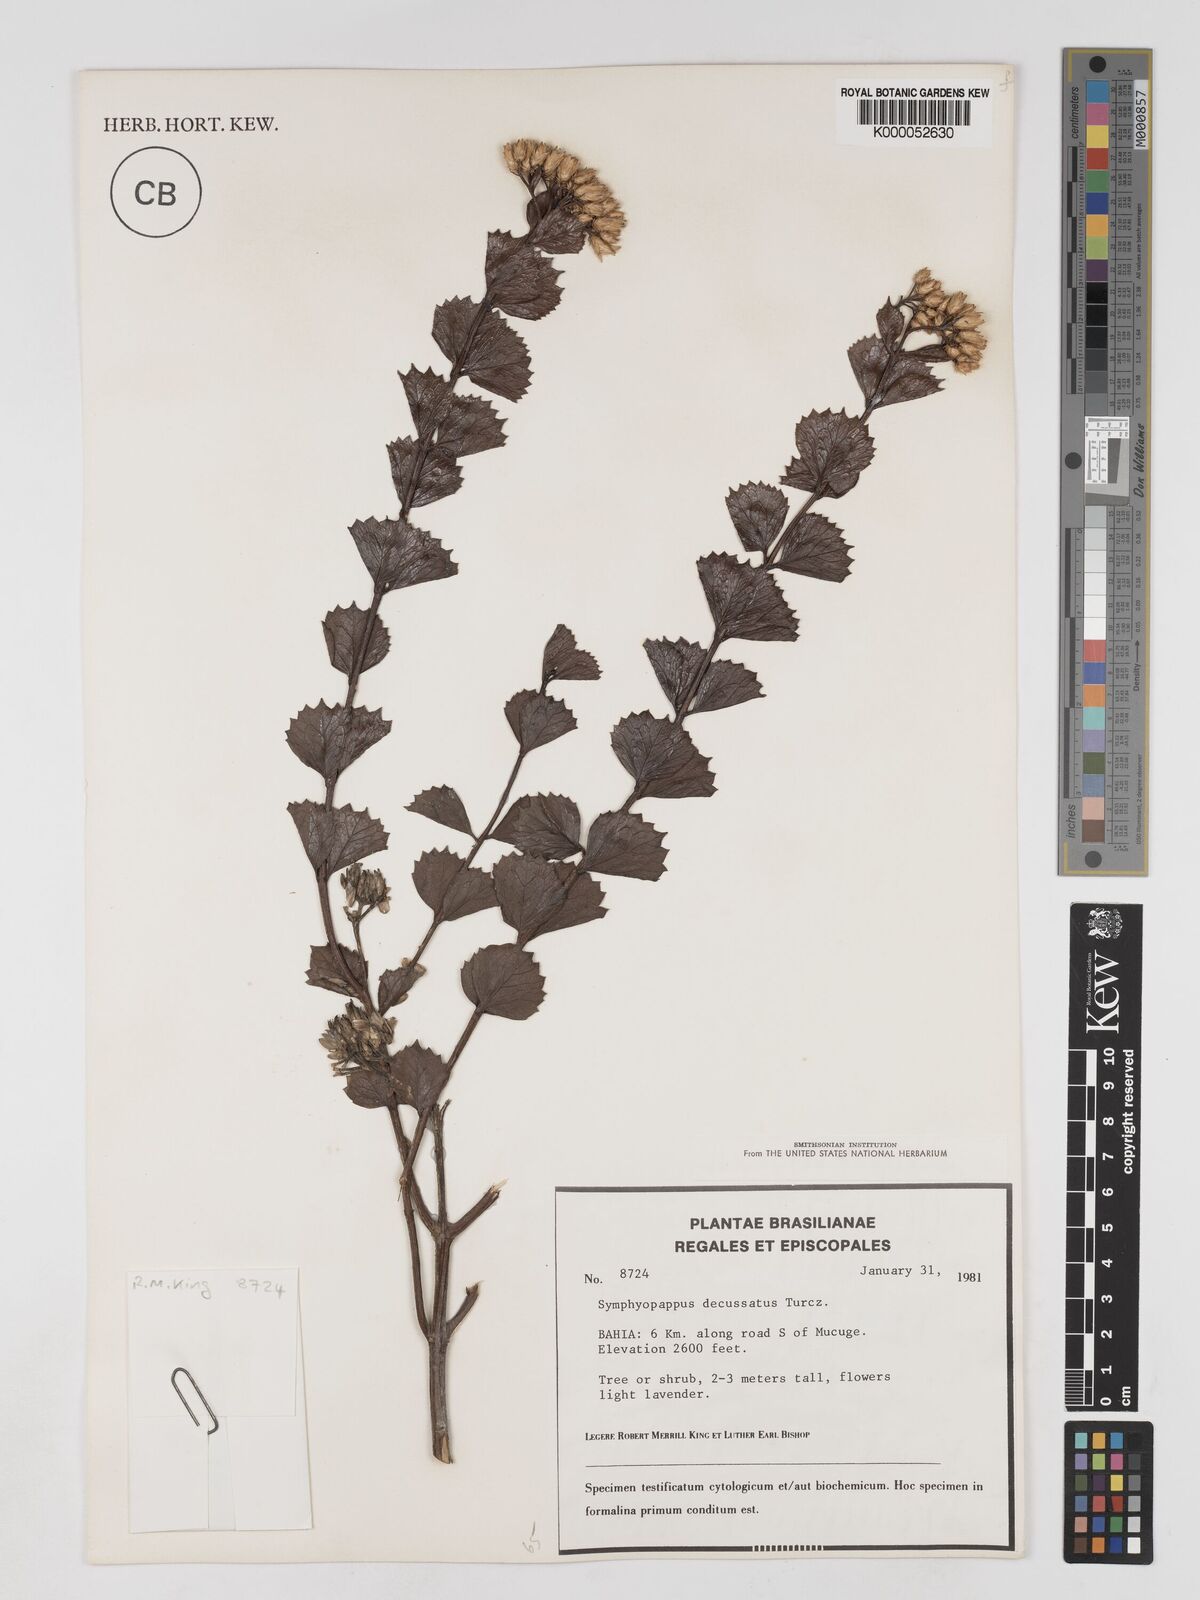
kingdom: Plantae
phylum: Tracheophyta
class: Magnoliopsida
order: Asterales
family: Asteraceae
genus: Symphyopappus
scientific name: Symphyopappus decussatus
